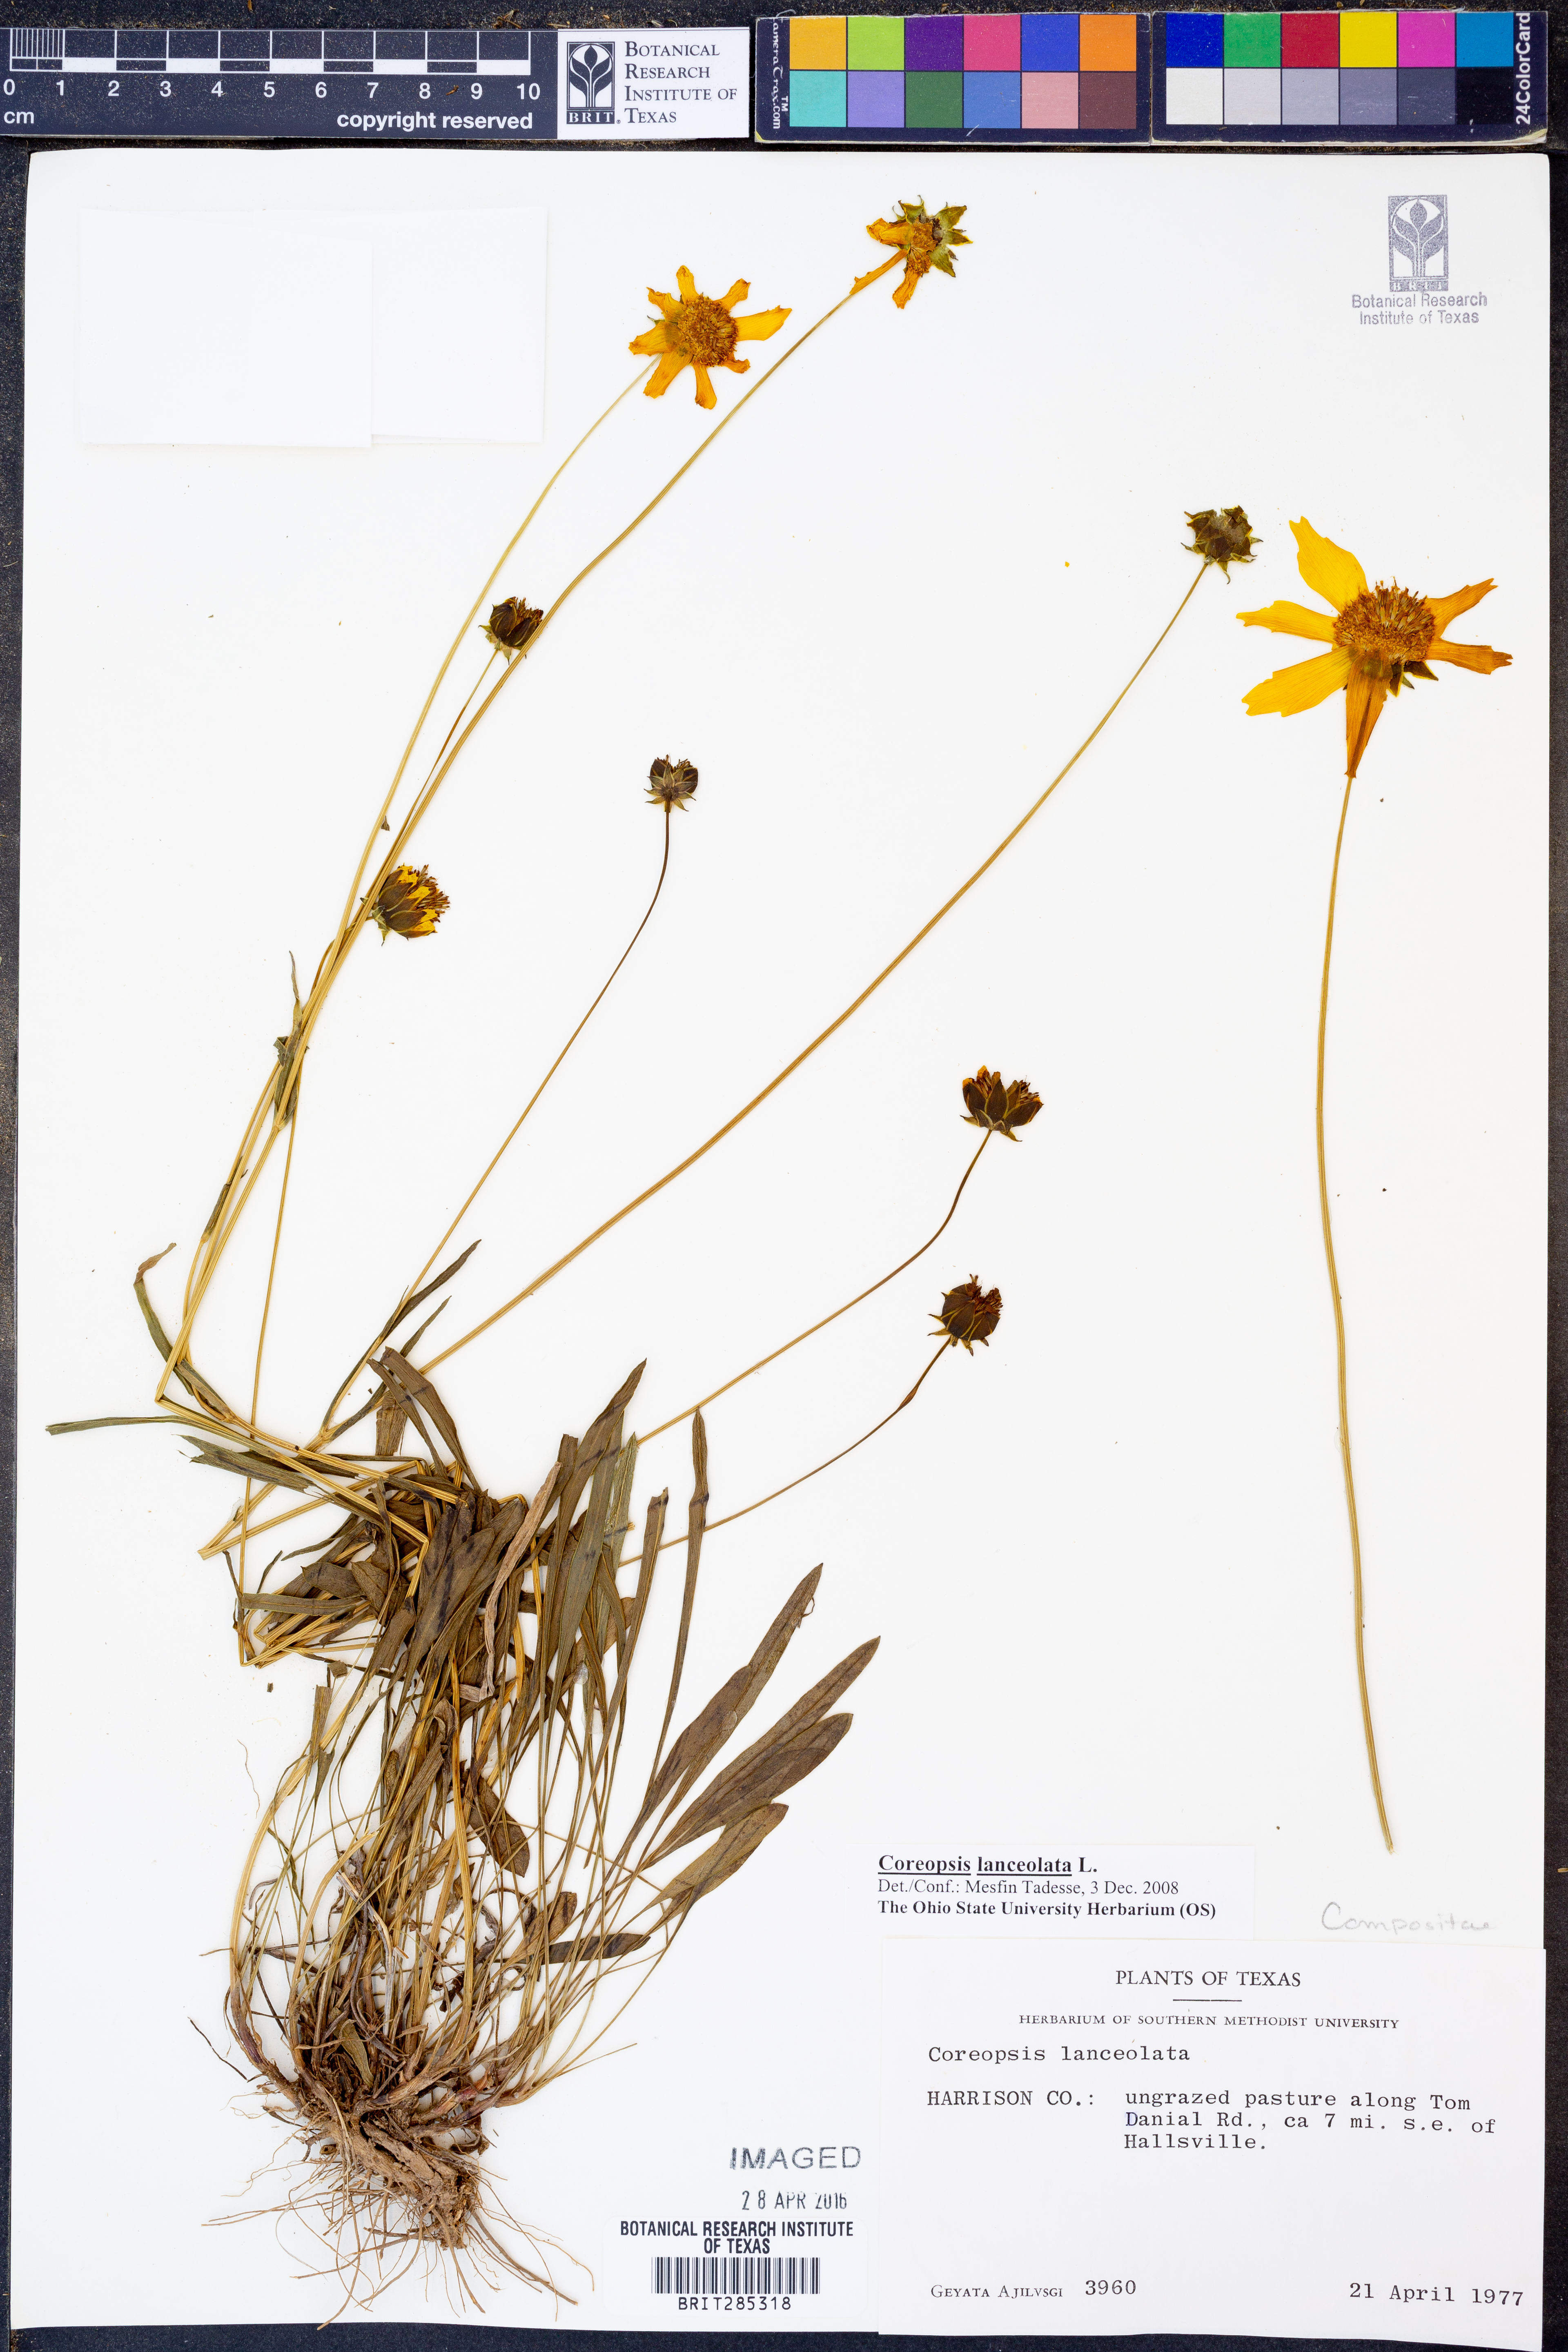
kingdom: Plantae
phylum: Tracheophyta
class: Magnoliopsida
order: Asterales
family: Asteraceae
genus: Coreopsis
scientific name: Coreopsis lanceolata
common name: Garden coreopsis
